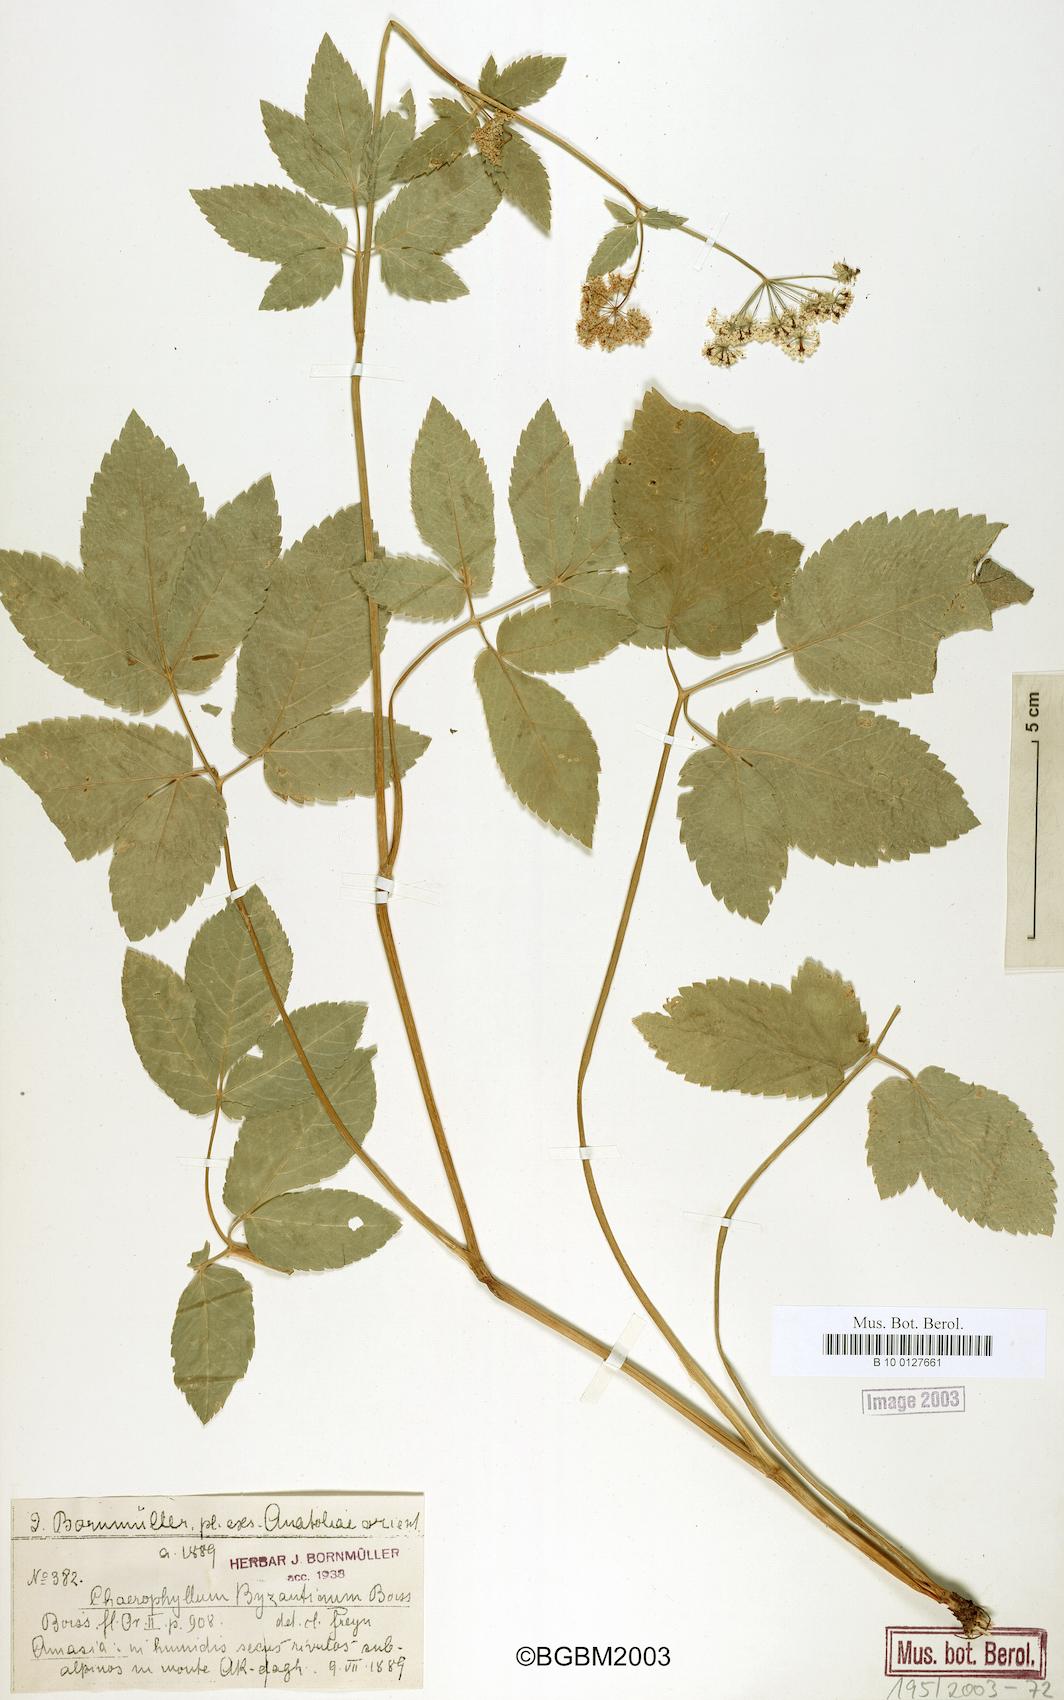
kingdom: Plantae
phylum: Tracheophyta
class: Magnoliopsida
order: Apiales
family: Apiaceae
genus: Chaerophyllum
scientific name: Chaerophyllum byzantinum
